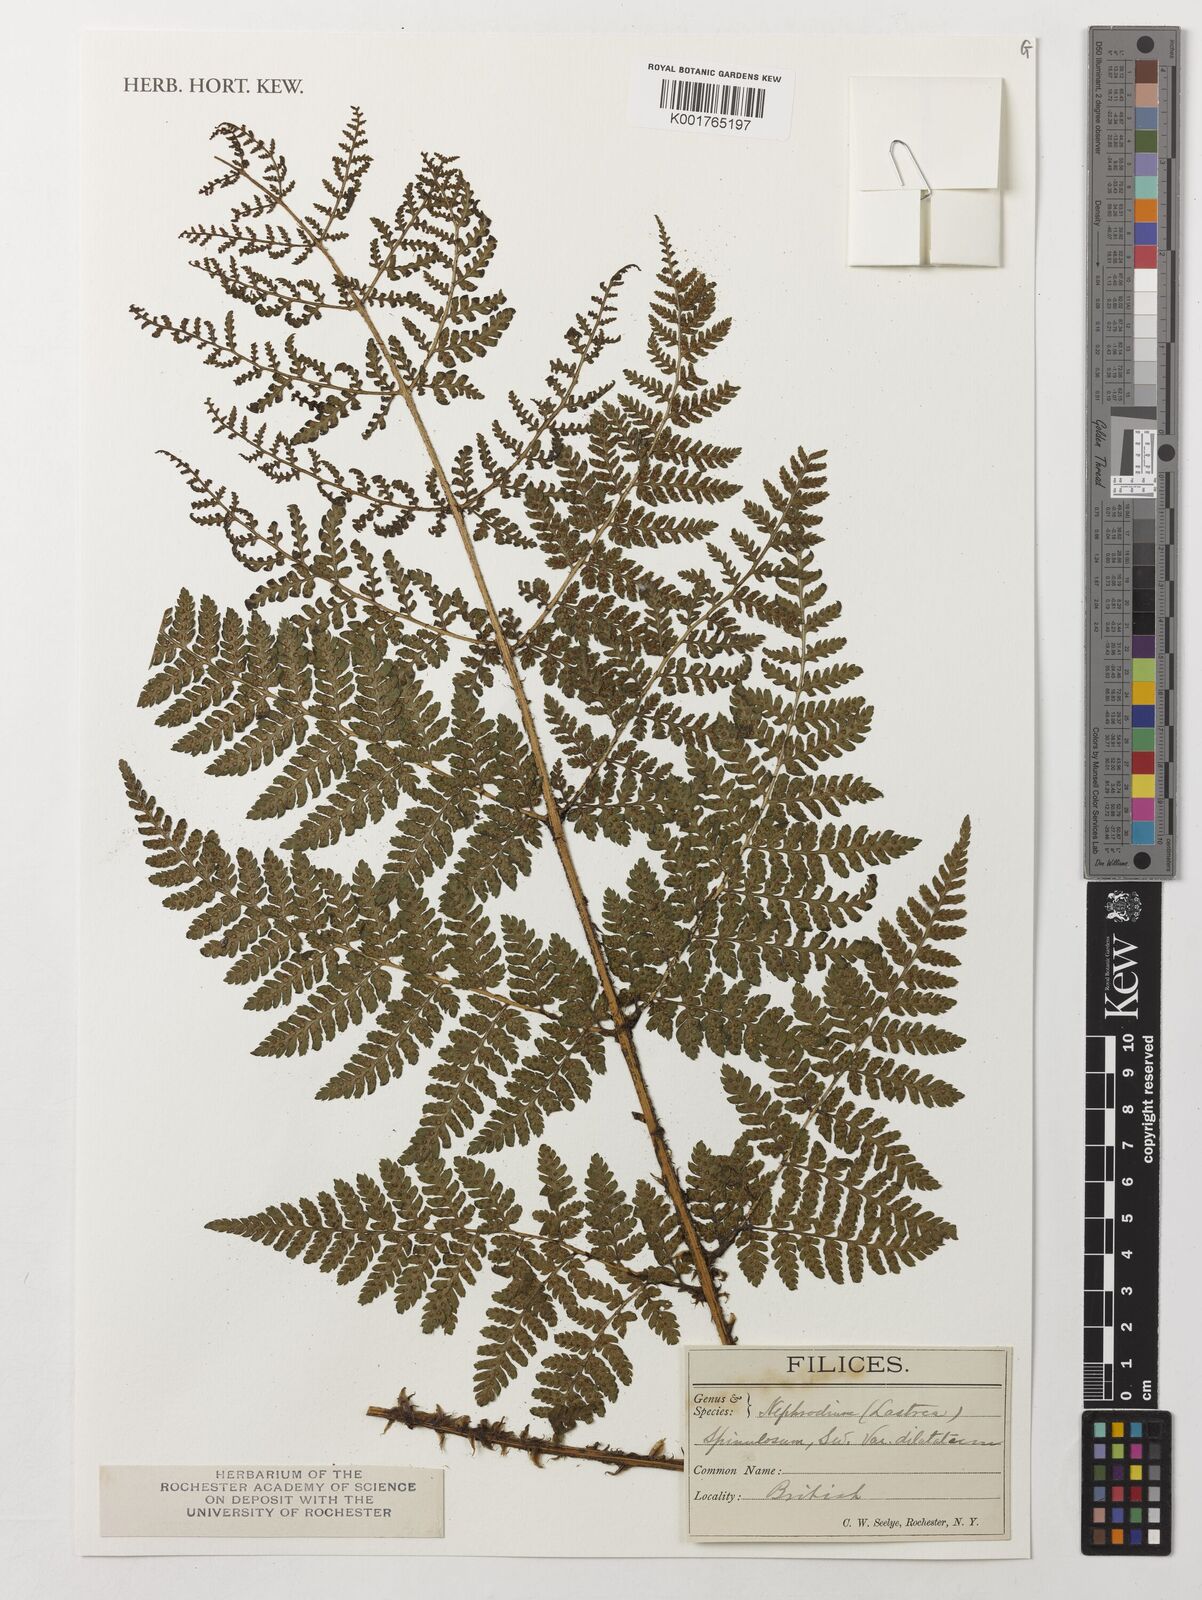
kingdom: Plantae
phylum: Tracheophyta
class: Polypodiopsida
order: Polypodiales
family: Dryopteridaceae
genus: Dryopteris
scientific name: Dryopteris dilatata
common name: Broad buckler-fern
